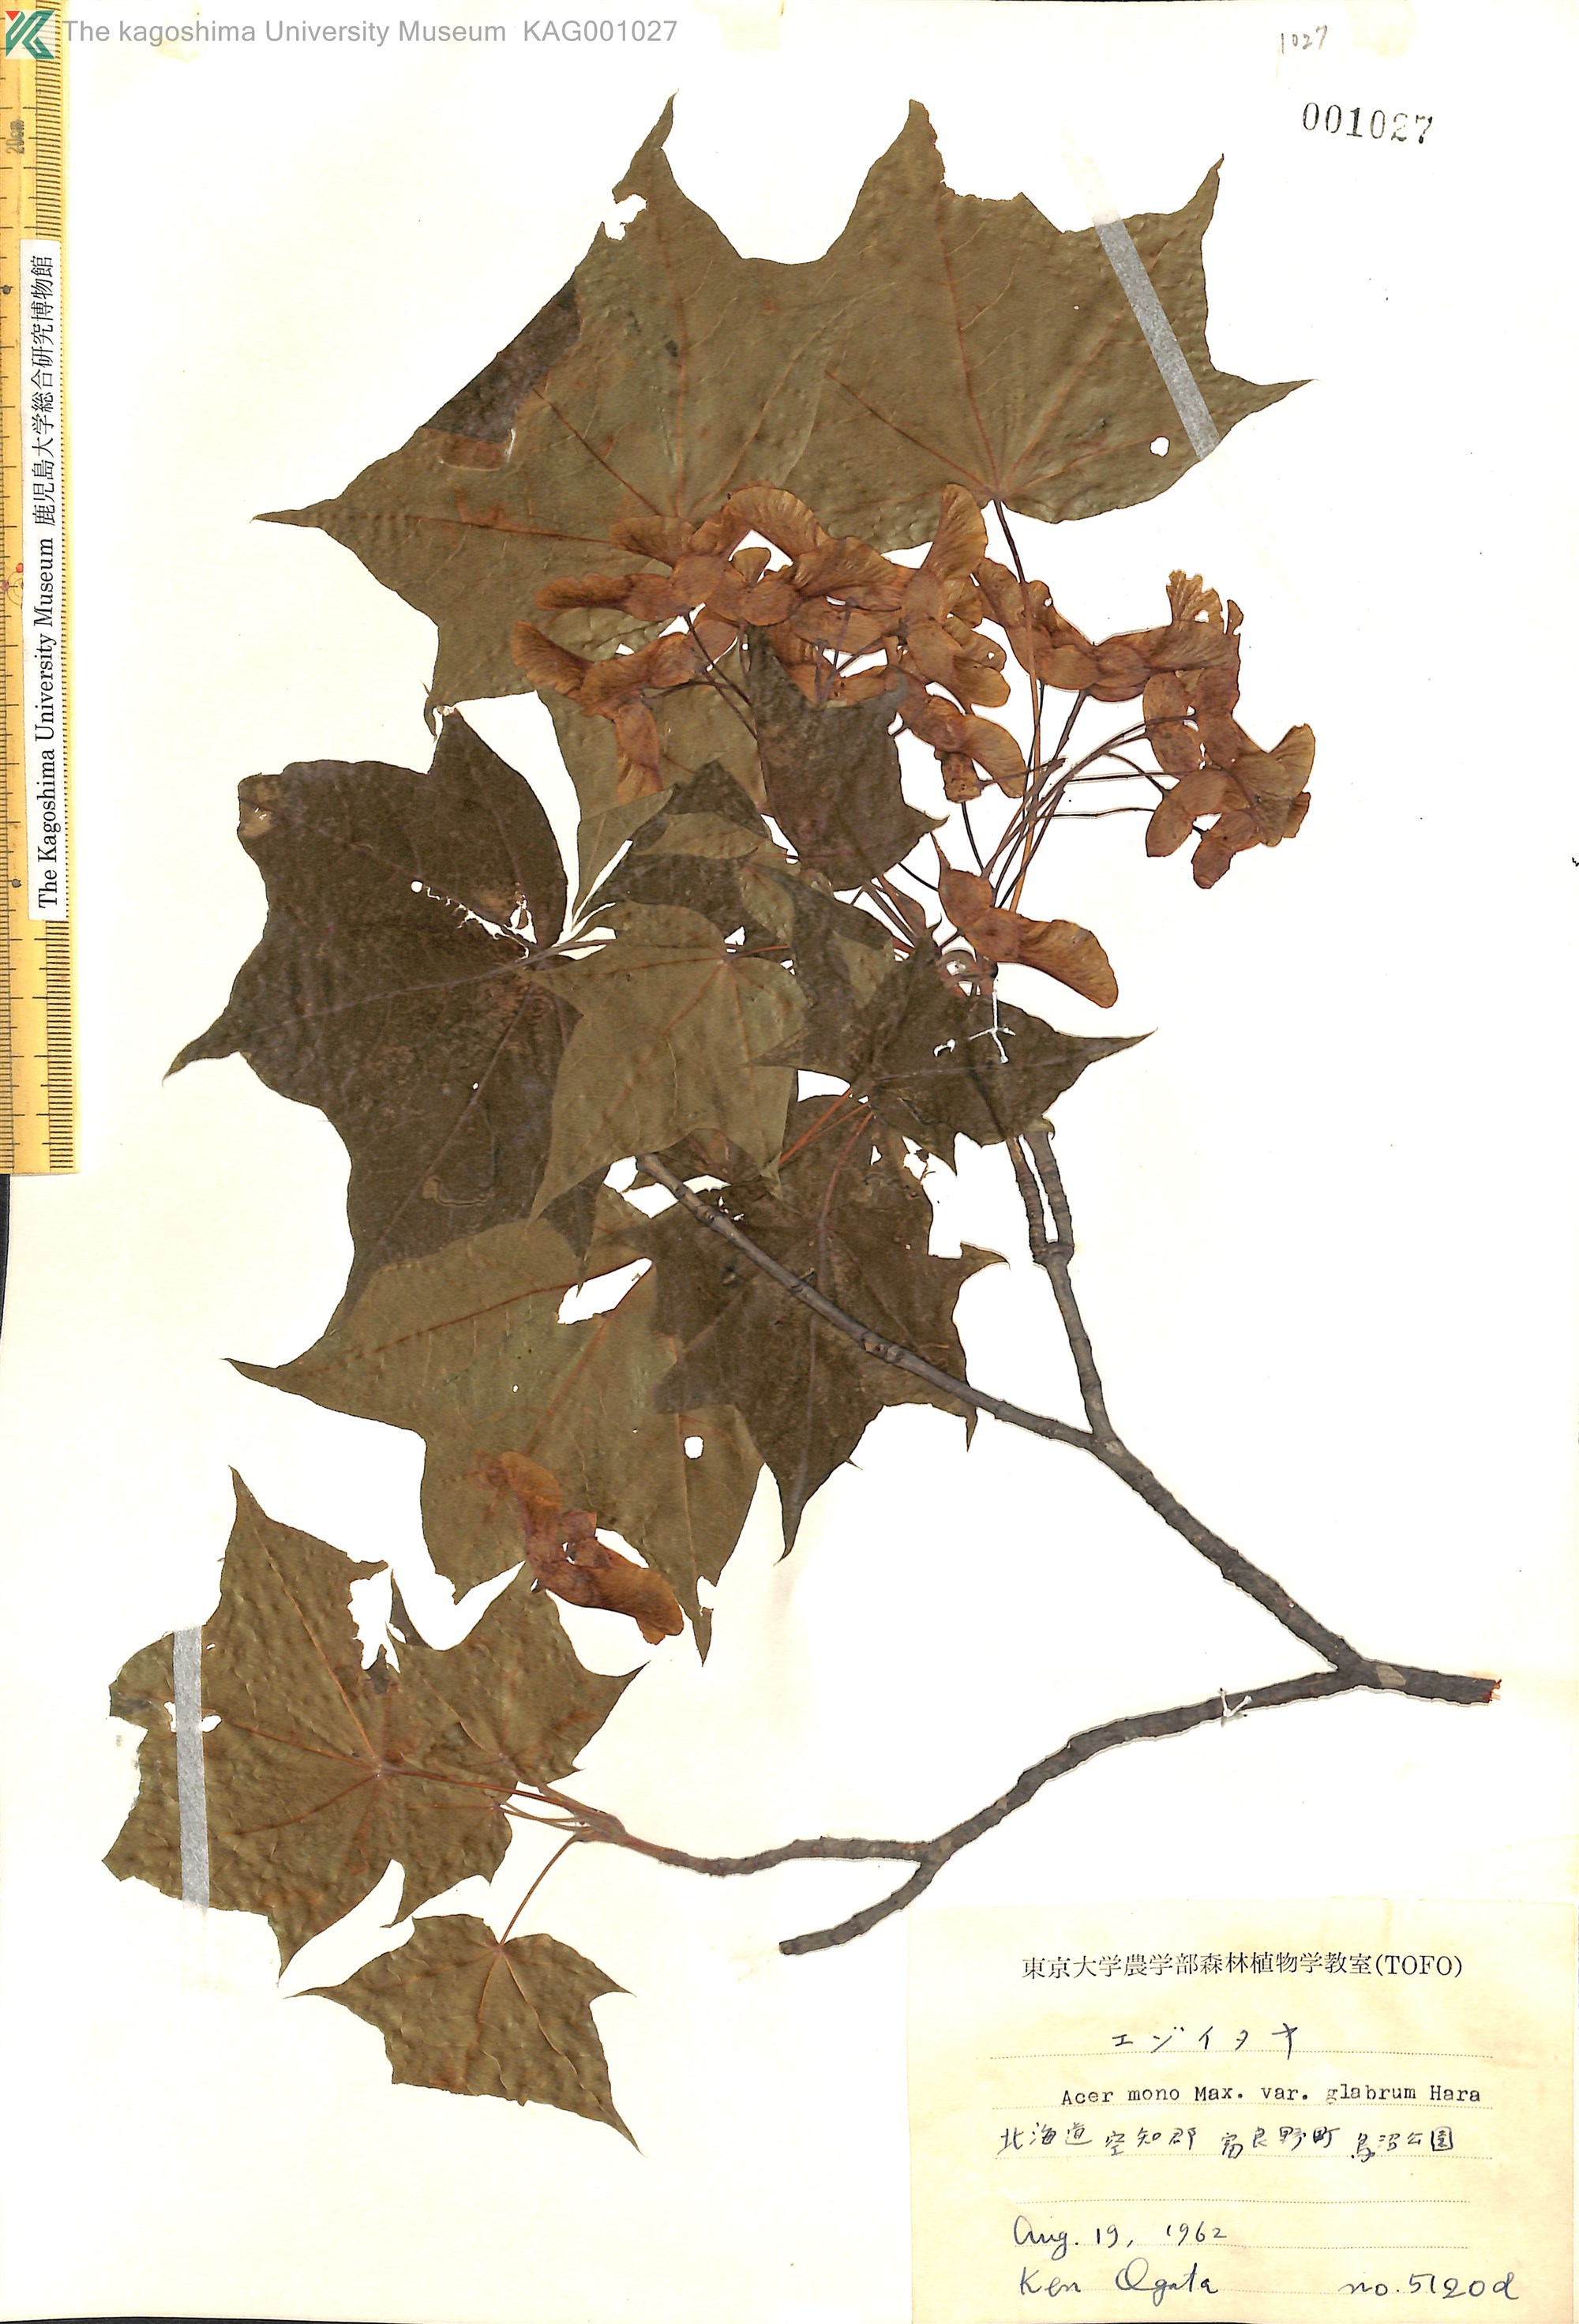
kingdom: Plantae
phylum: Tracheophyta
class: Magnoliopsida
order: Sapindales
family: Sapindaceae
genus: Acer
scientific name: Acer pictum
